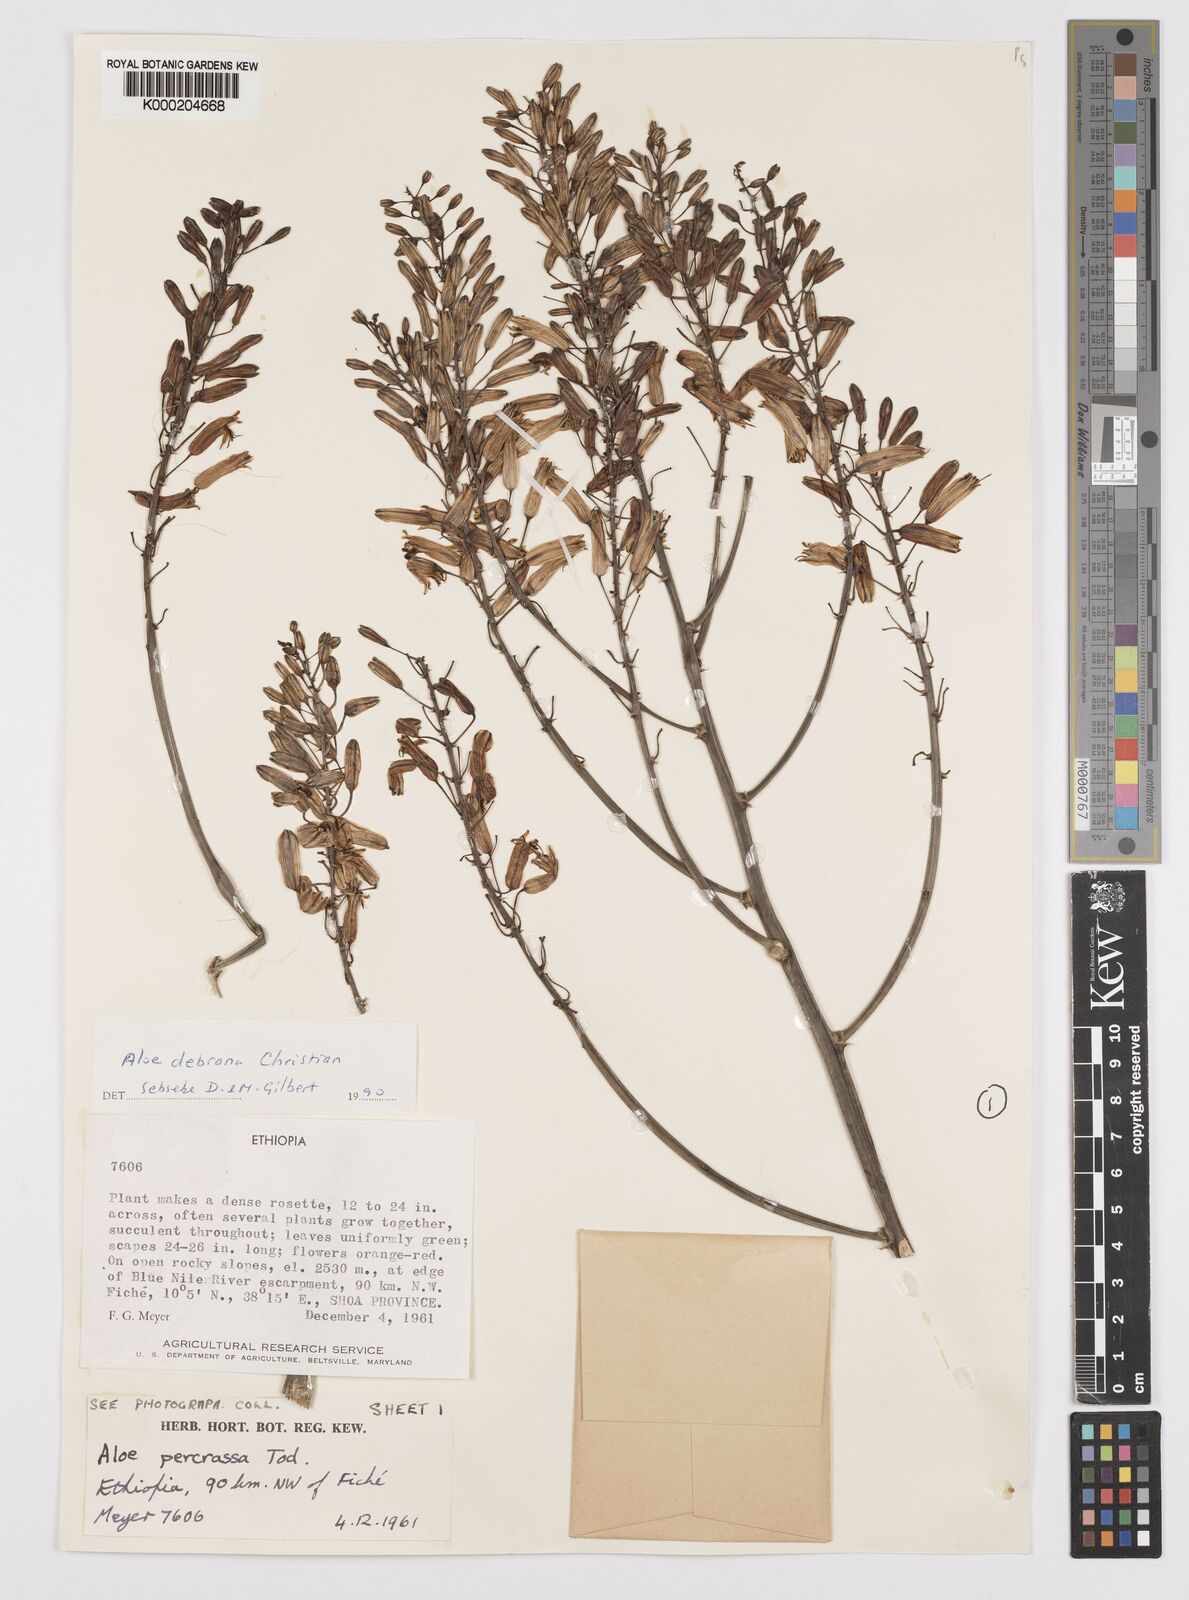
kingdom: Plantae
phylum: Tracheophyta
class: Liliopsida
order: Asparagales
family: Asphodelaceae
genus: Aloe
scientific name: Aloe debrana
